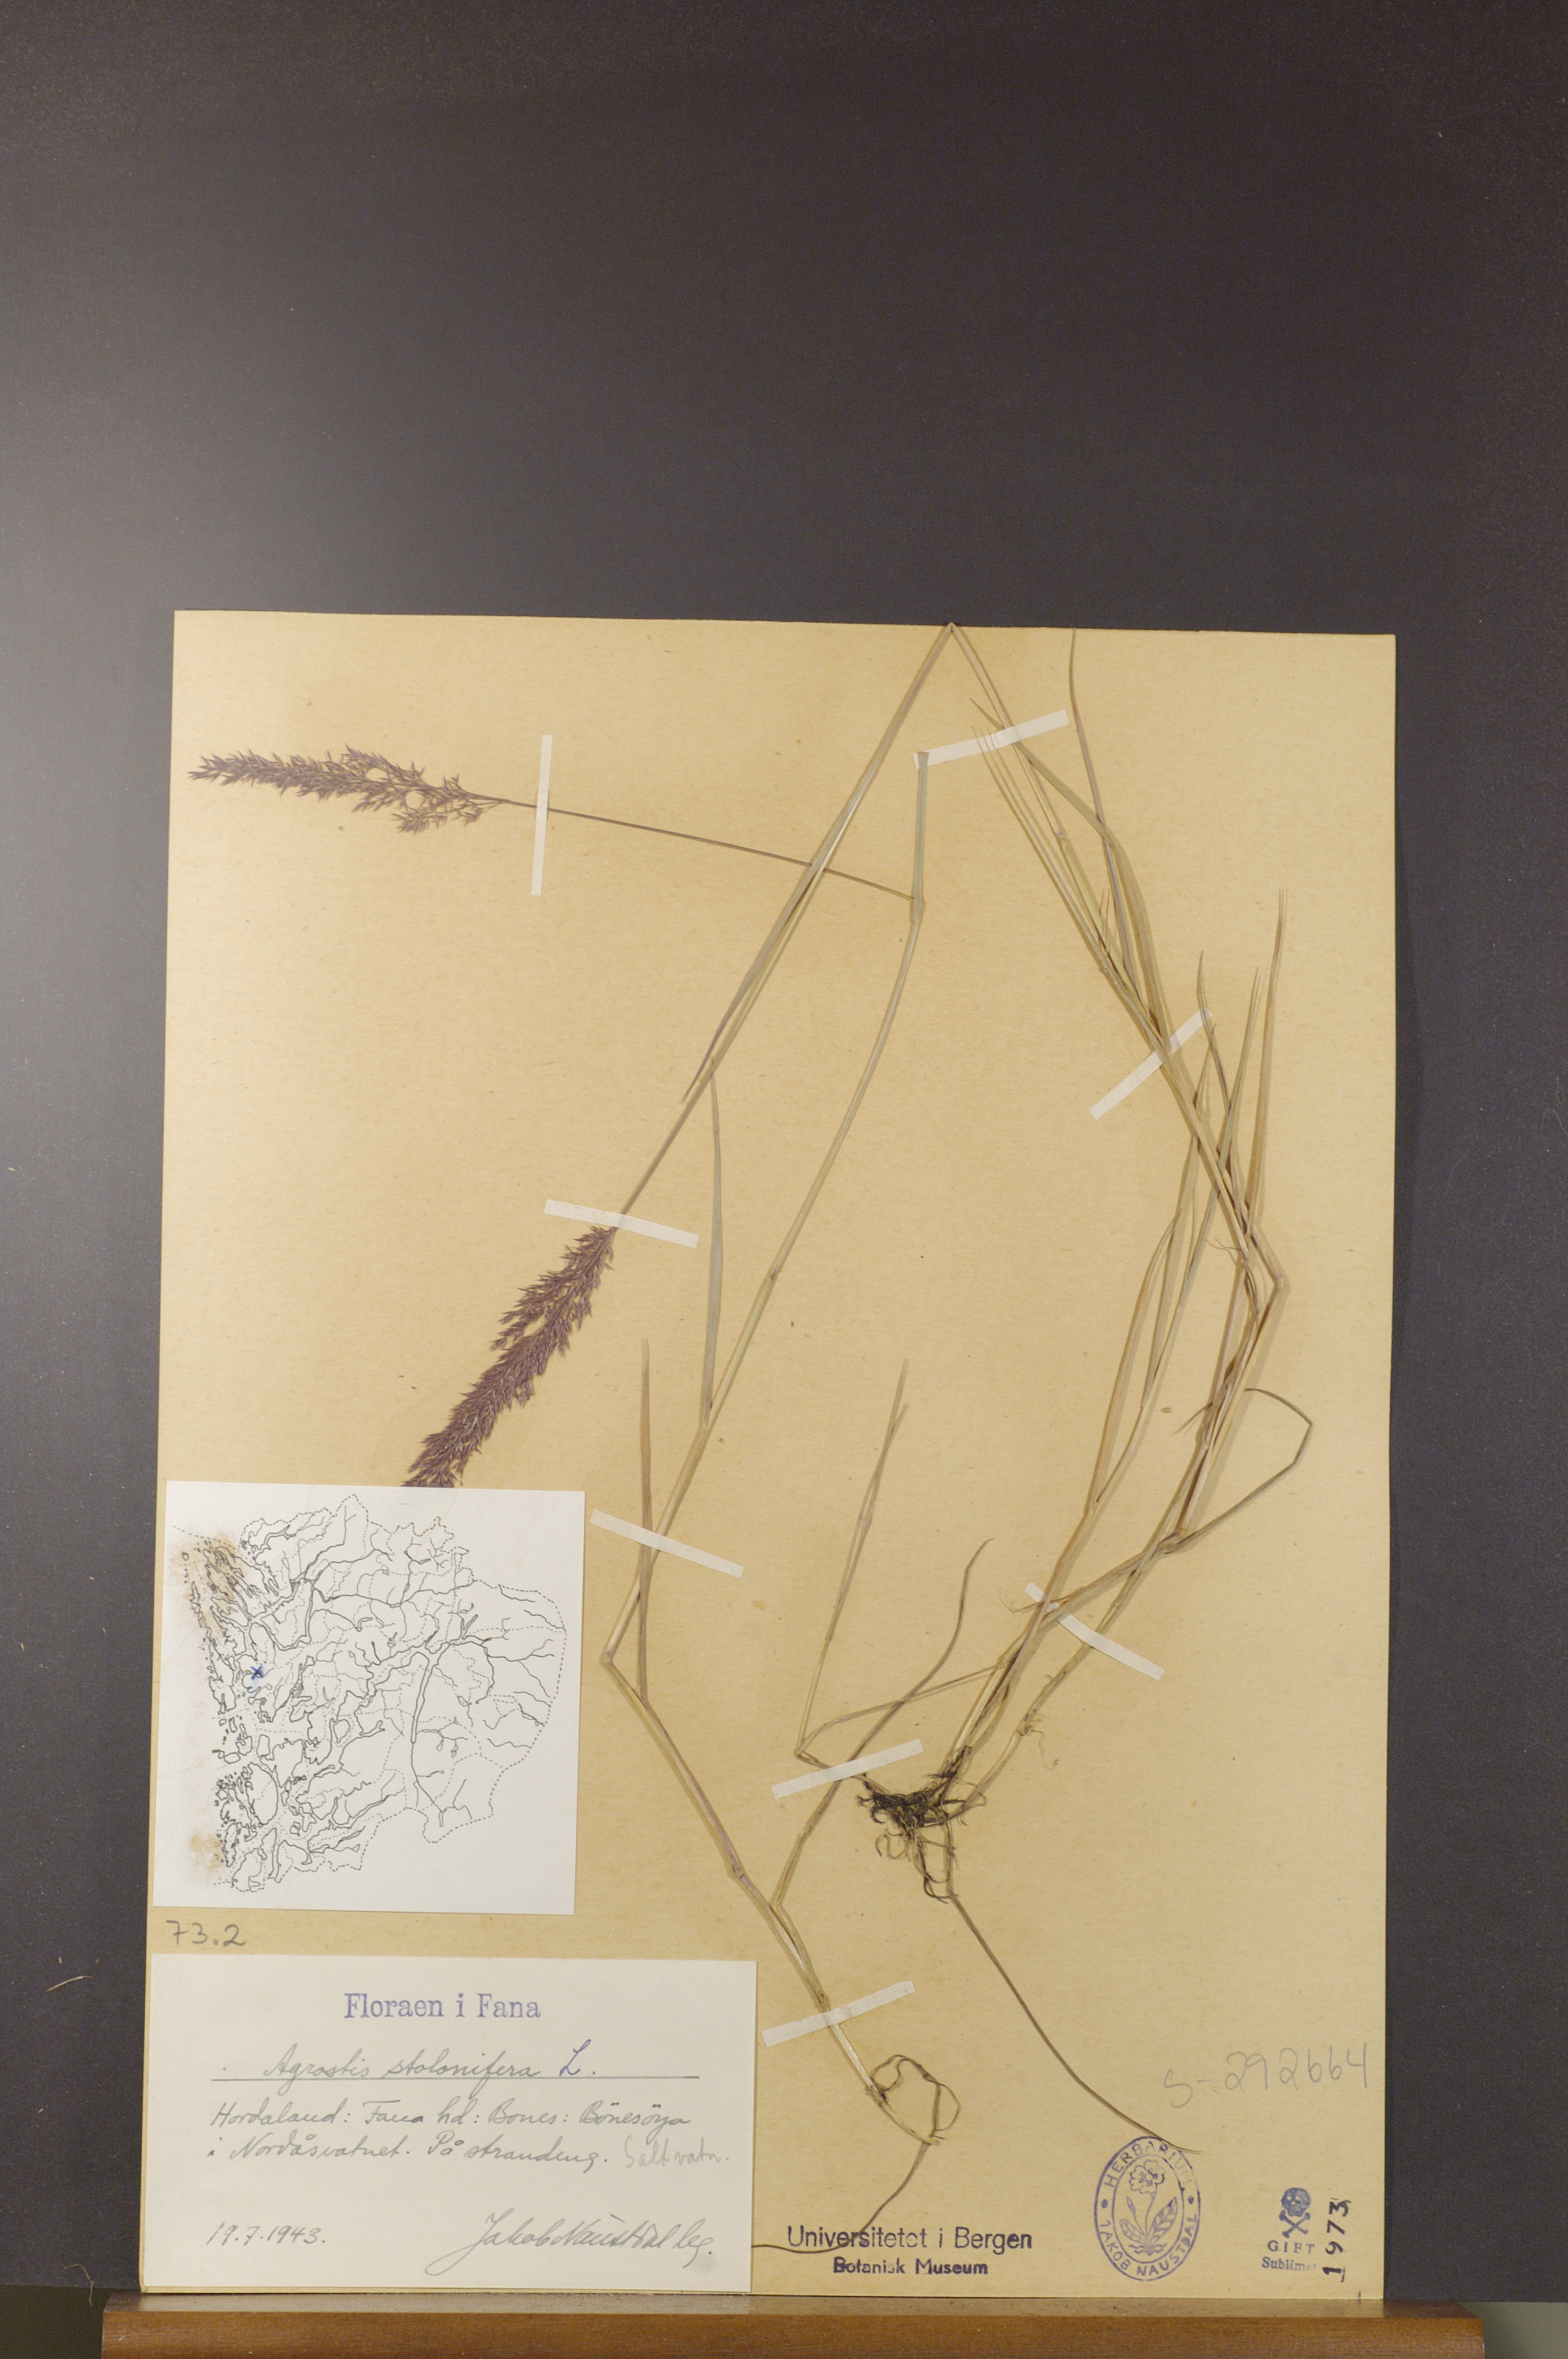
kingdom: Plantae
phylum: Tracheophyta
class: Liliopsida
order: Poales
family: Poaceae
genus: Agrostis
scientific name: Agrostis stolonifera
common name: Creeping bentgrass
